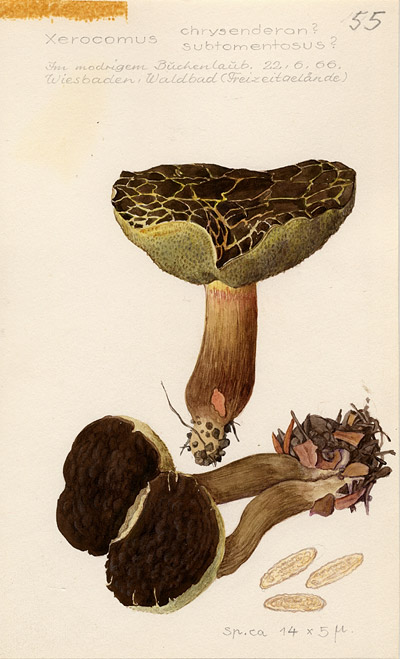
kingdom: Fungi
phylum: Basidiomycota
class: Agaricomycetes
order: Boletales
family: Boletaceae
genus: Xerocomellus
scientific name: Xerocomellus chrysenteron
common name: Red-cracking bolete
